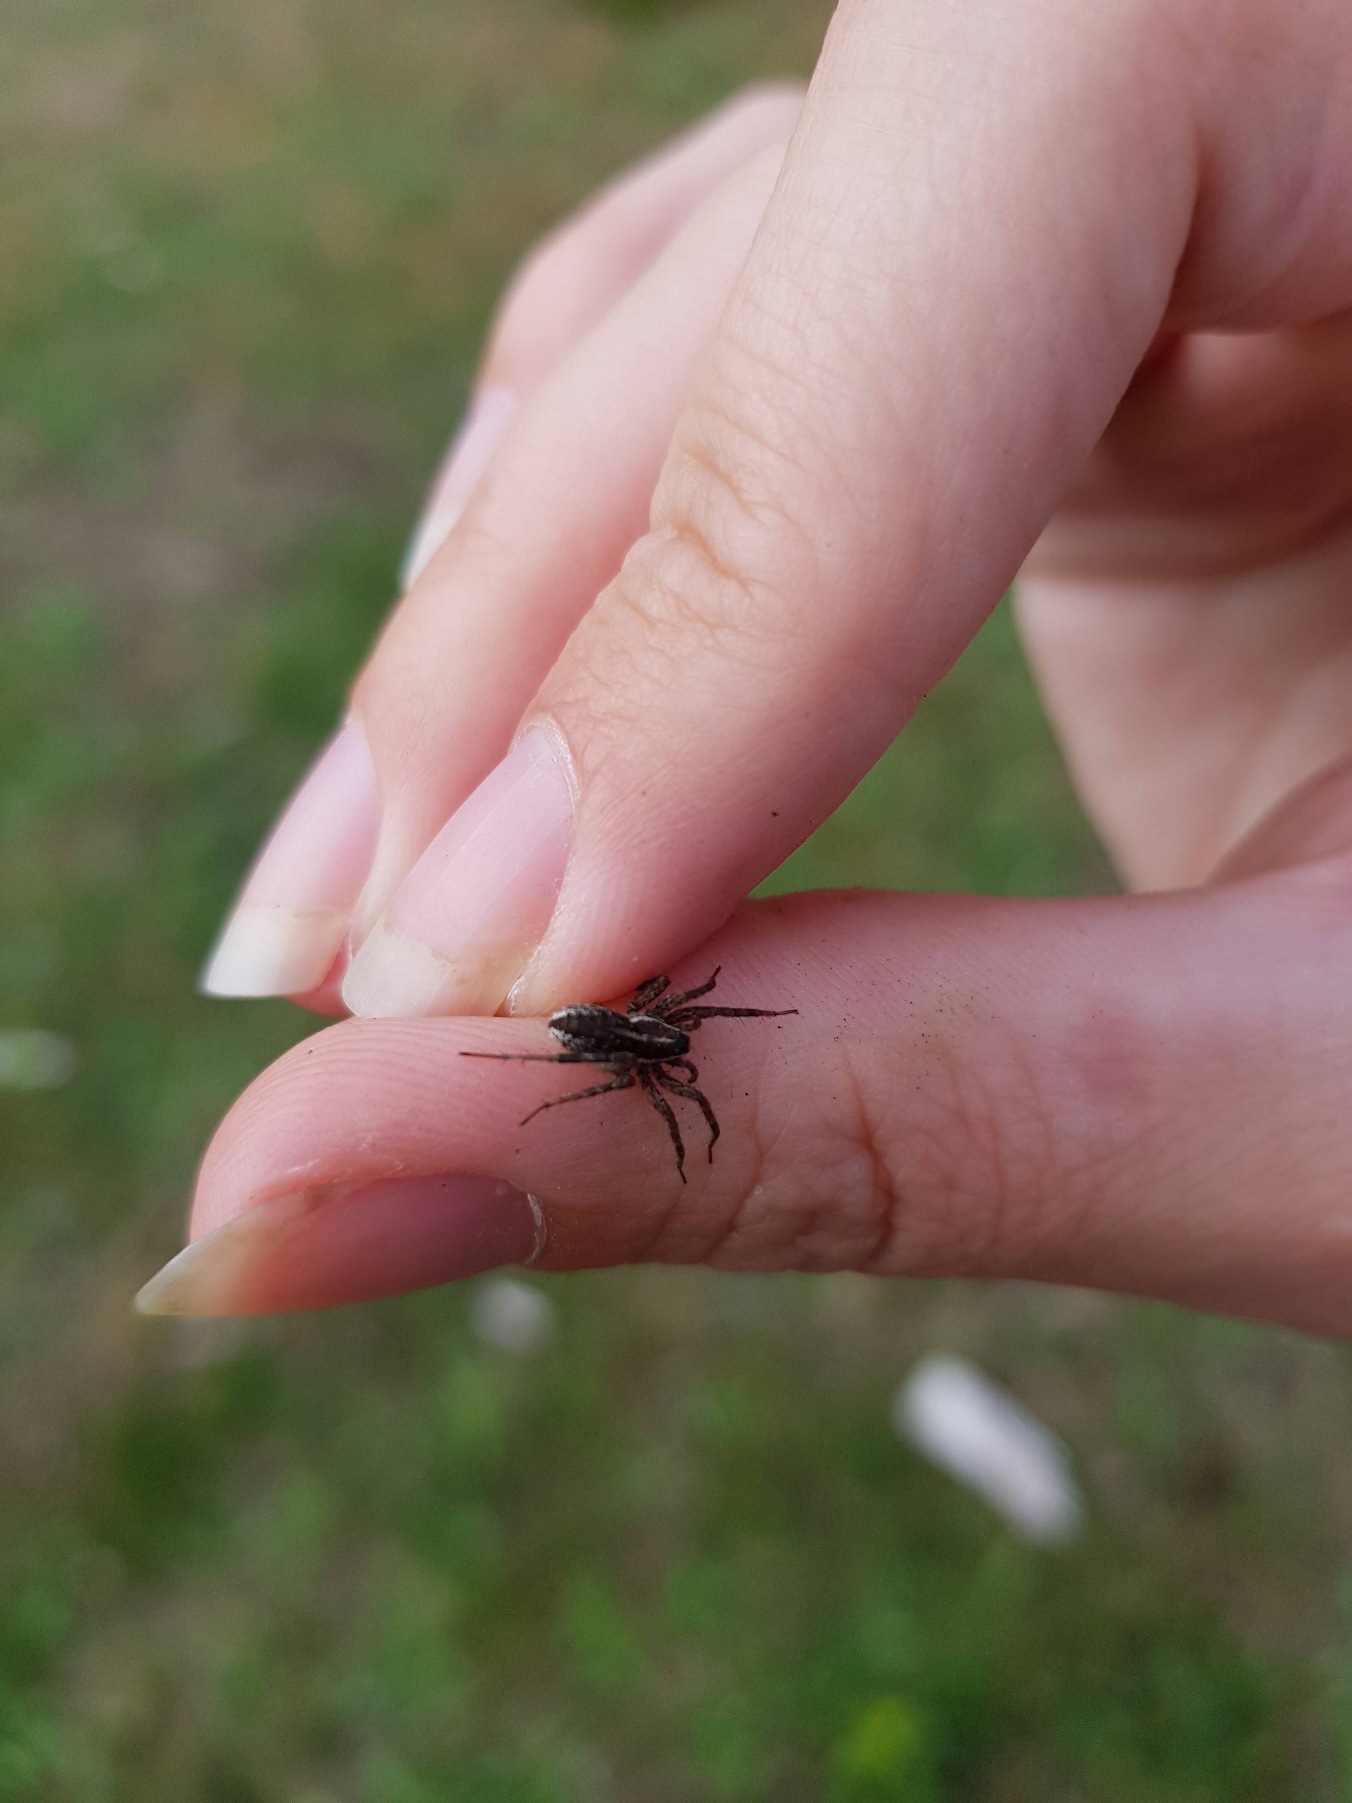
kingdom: Animalia
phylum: Arthropoda
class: Arachnida
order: Araneae
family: Lycosidae
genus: Pardosa
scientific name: Pardosa
